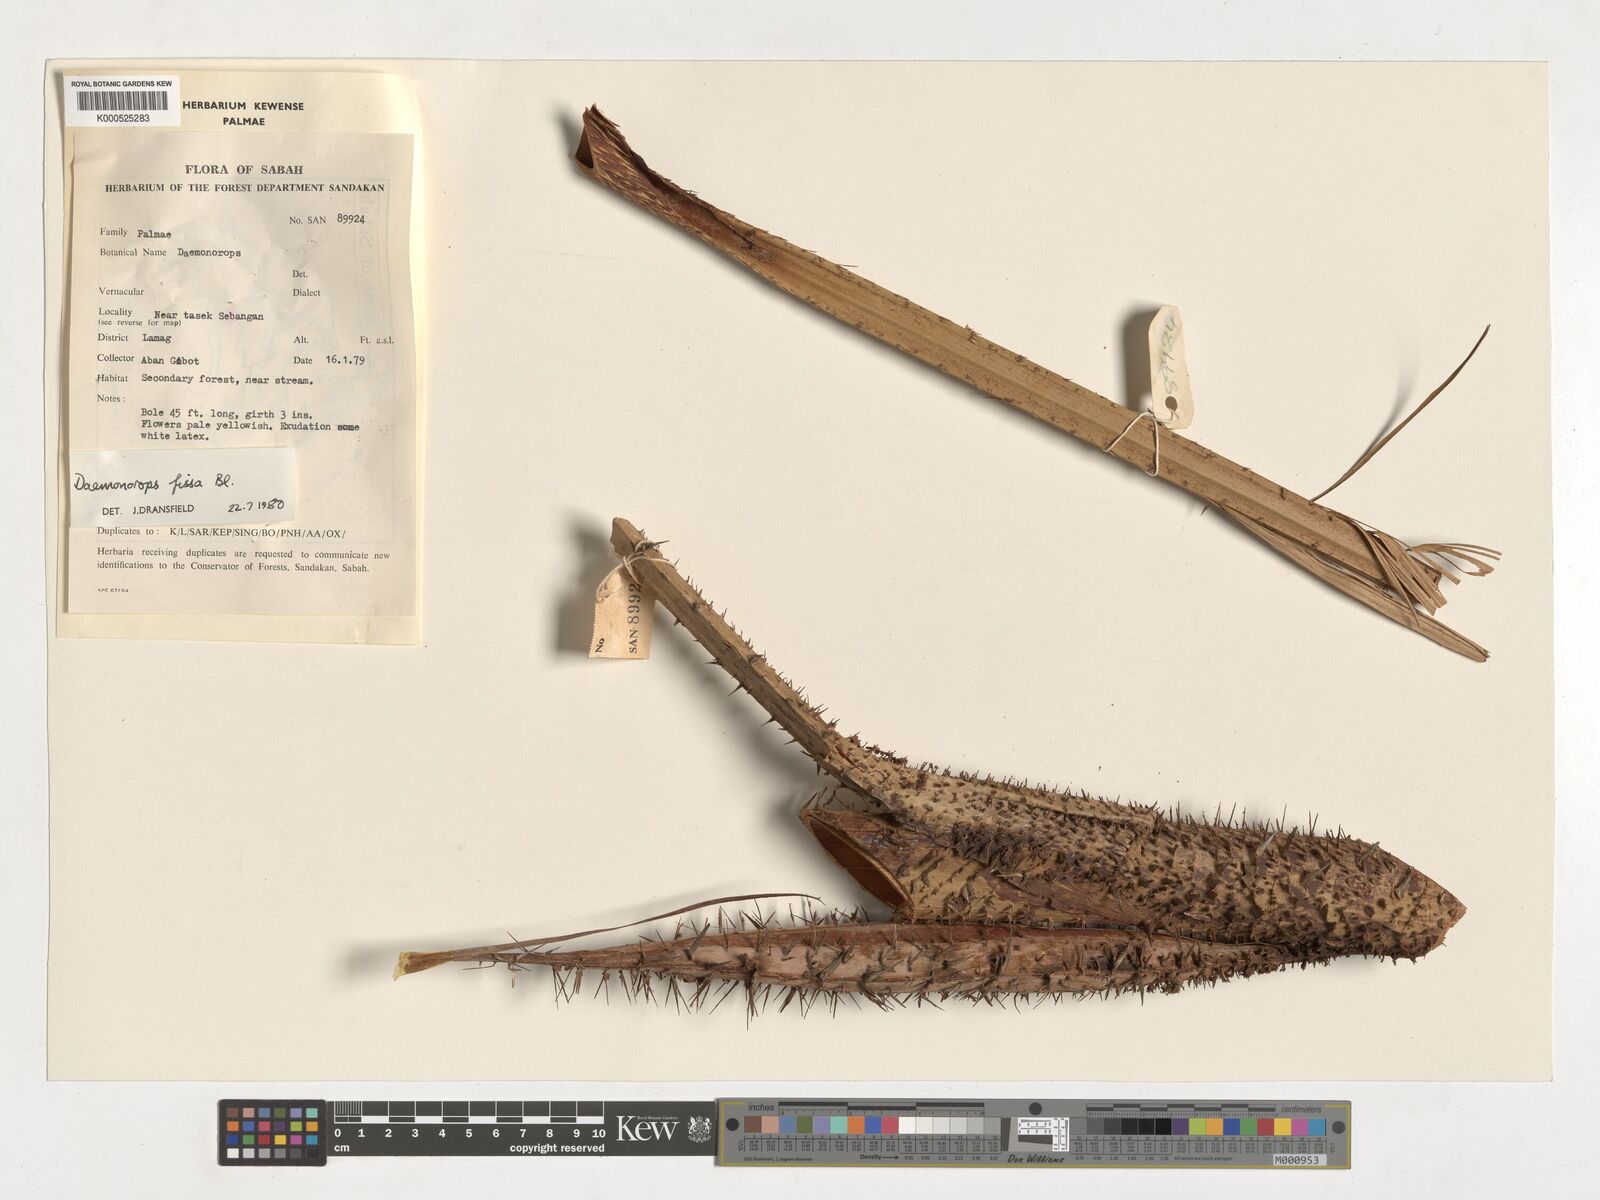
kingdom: Plantae
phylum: Tracheophyta
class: Liliopsida
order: Arecales
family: Arecaceae
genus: Calamus
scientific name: Calamus melanochaetes
